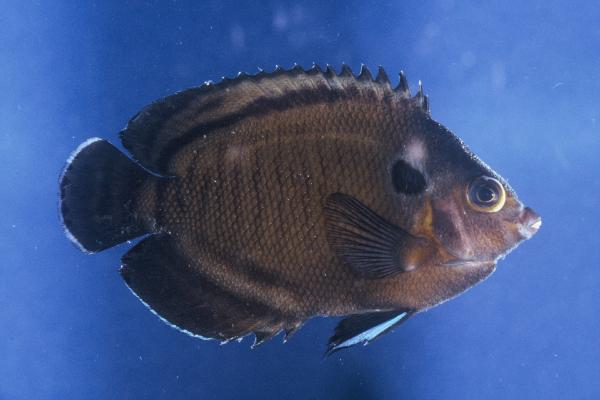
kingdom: Animalia
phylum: Chordata
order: Perciformes
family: Pomacanthidae
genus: Centropyge
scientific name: Centropyge multispinis
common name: Many-spined angelfish
